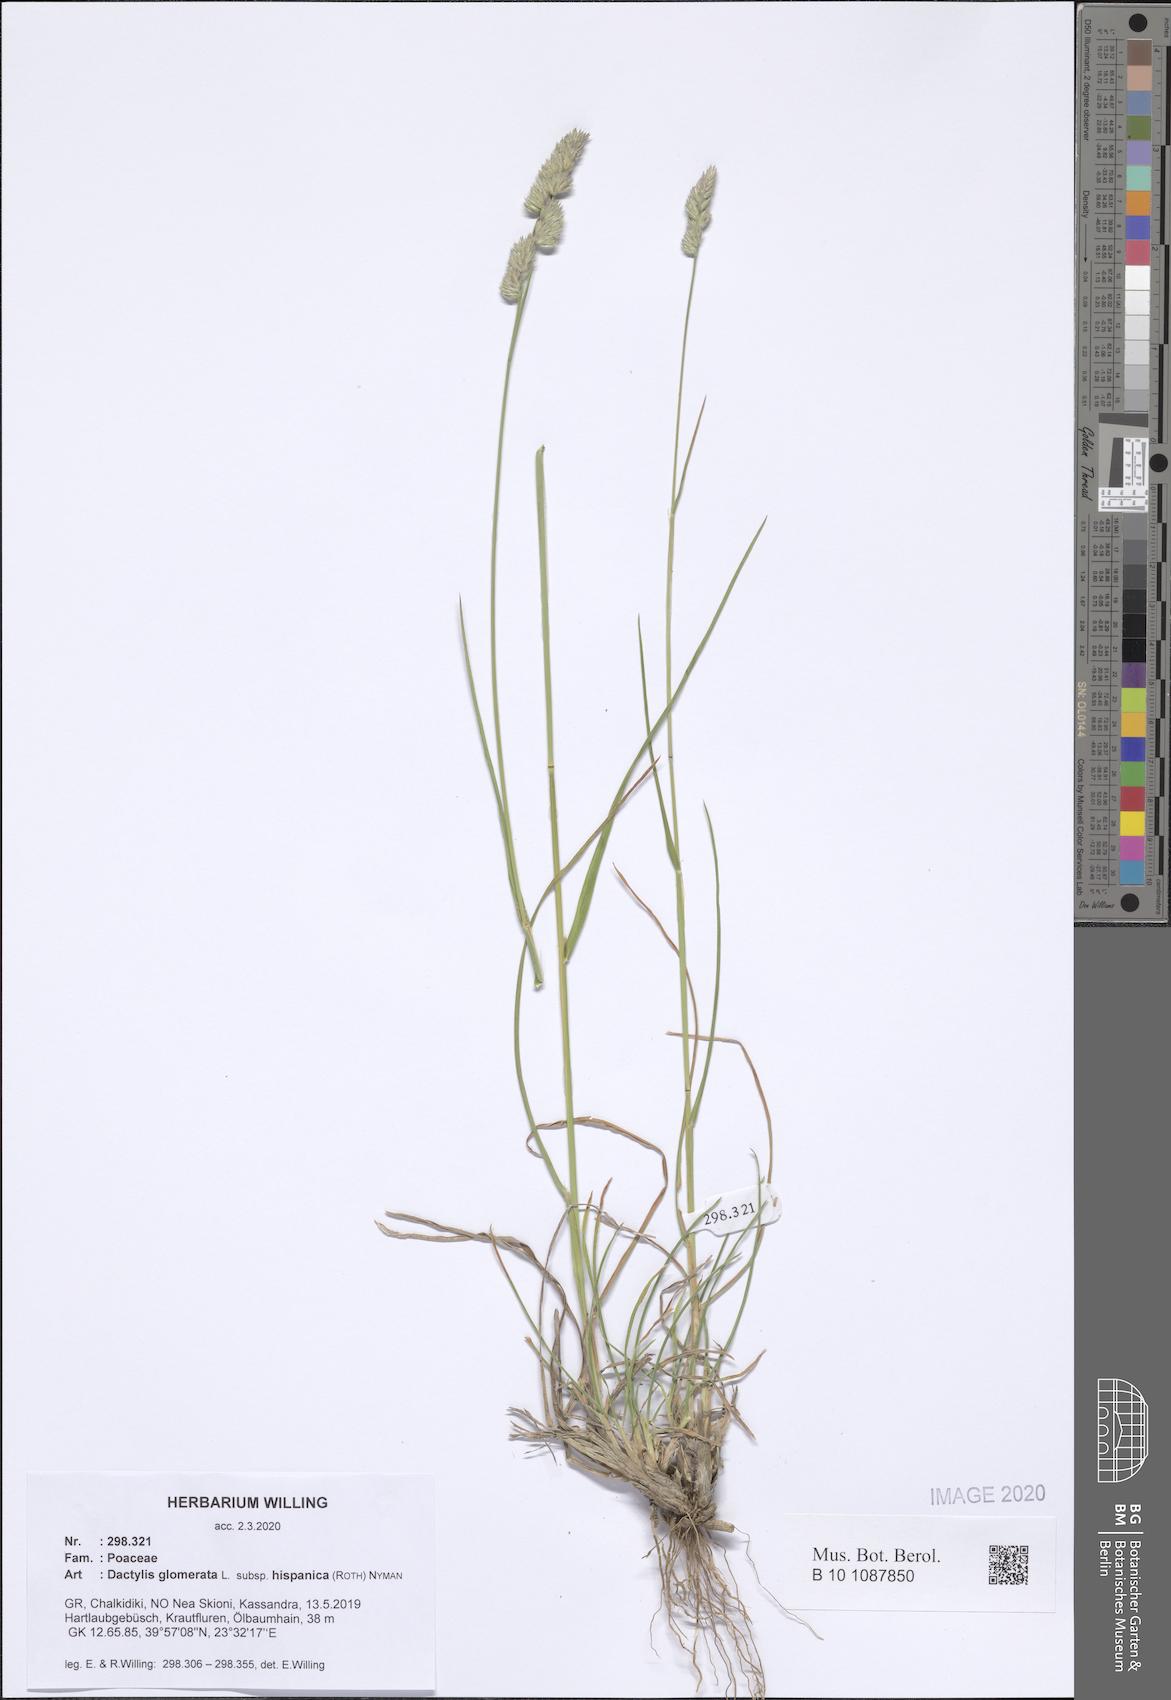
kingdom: Plantae
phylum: Tracheophyta
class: Liliopsida
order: Poales
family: Poaceae
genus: Dactylis
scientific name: Dactylis glomerata
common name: Orchardgrass
